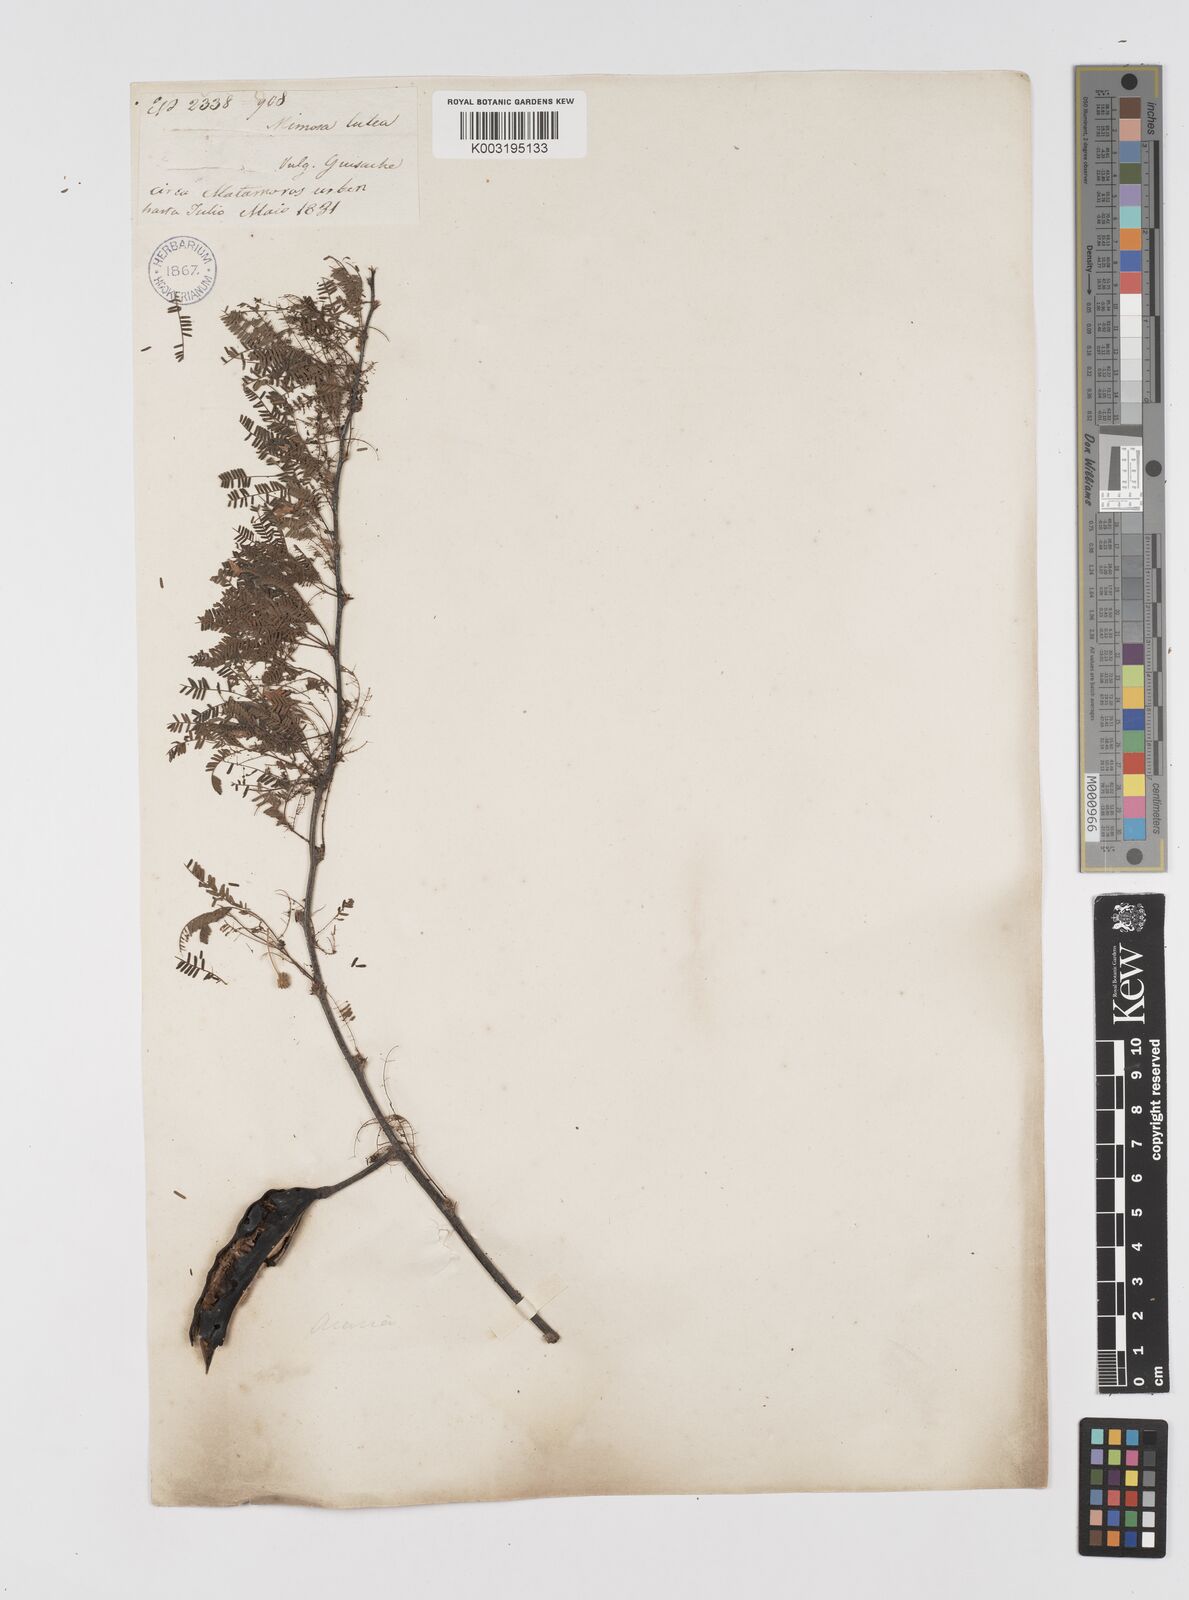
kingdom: Plantae
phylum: Tracheophyta
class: Magnoliopsida
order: Fabales
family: Fabaceae
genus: Vachellia
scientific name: Vachellia farnesiana
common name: Sweet acacia
